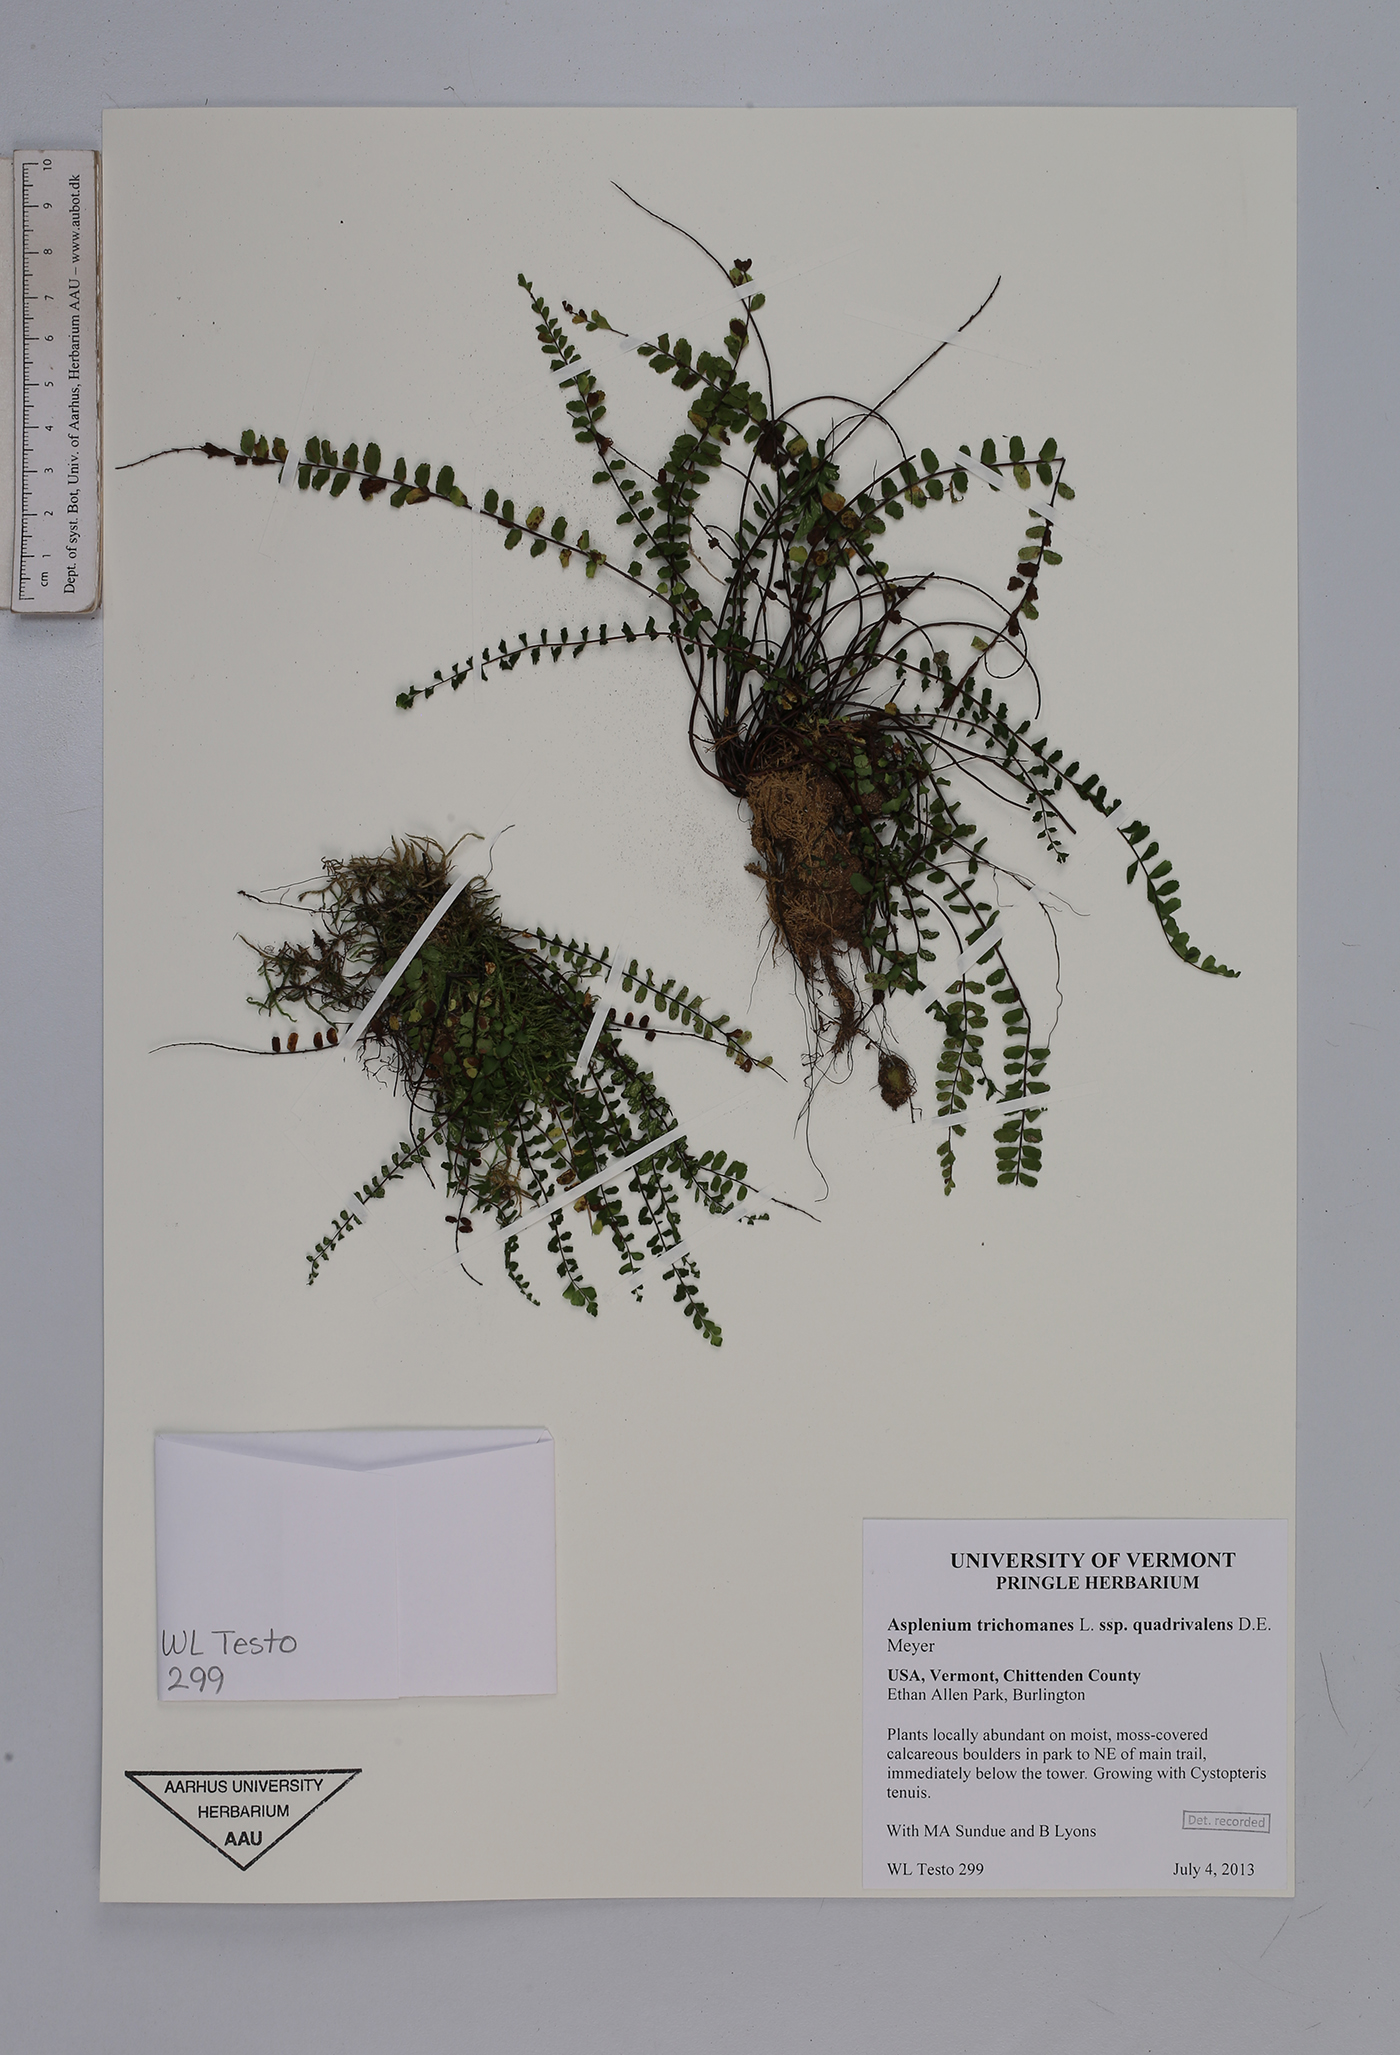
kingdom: Plantae
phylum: Tracheophyta
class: Polypodiopsida
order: Polypodiales
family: Aspleniaceae
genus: Asplenium
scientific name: Asplenium quadrivalens
